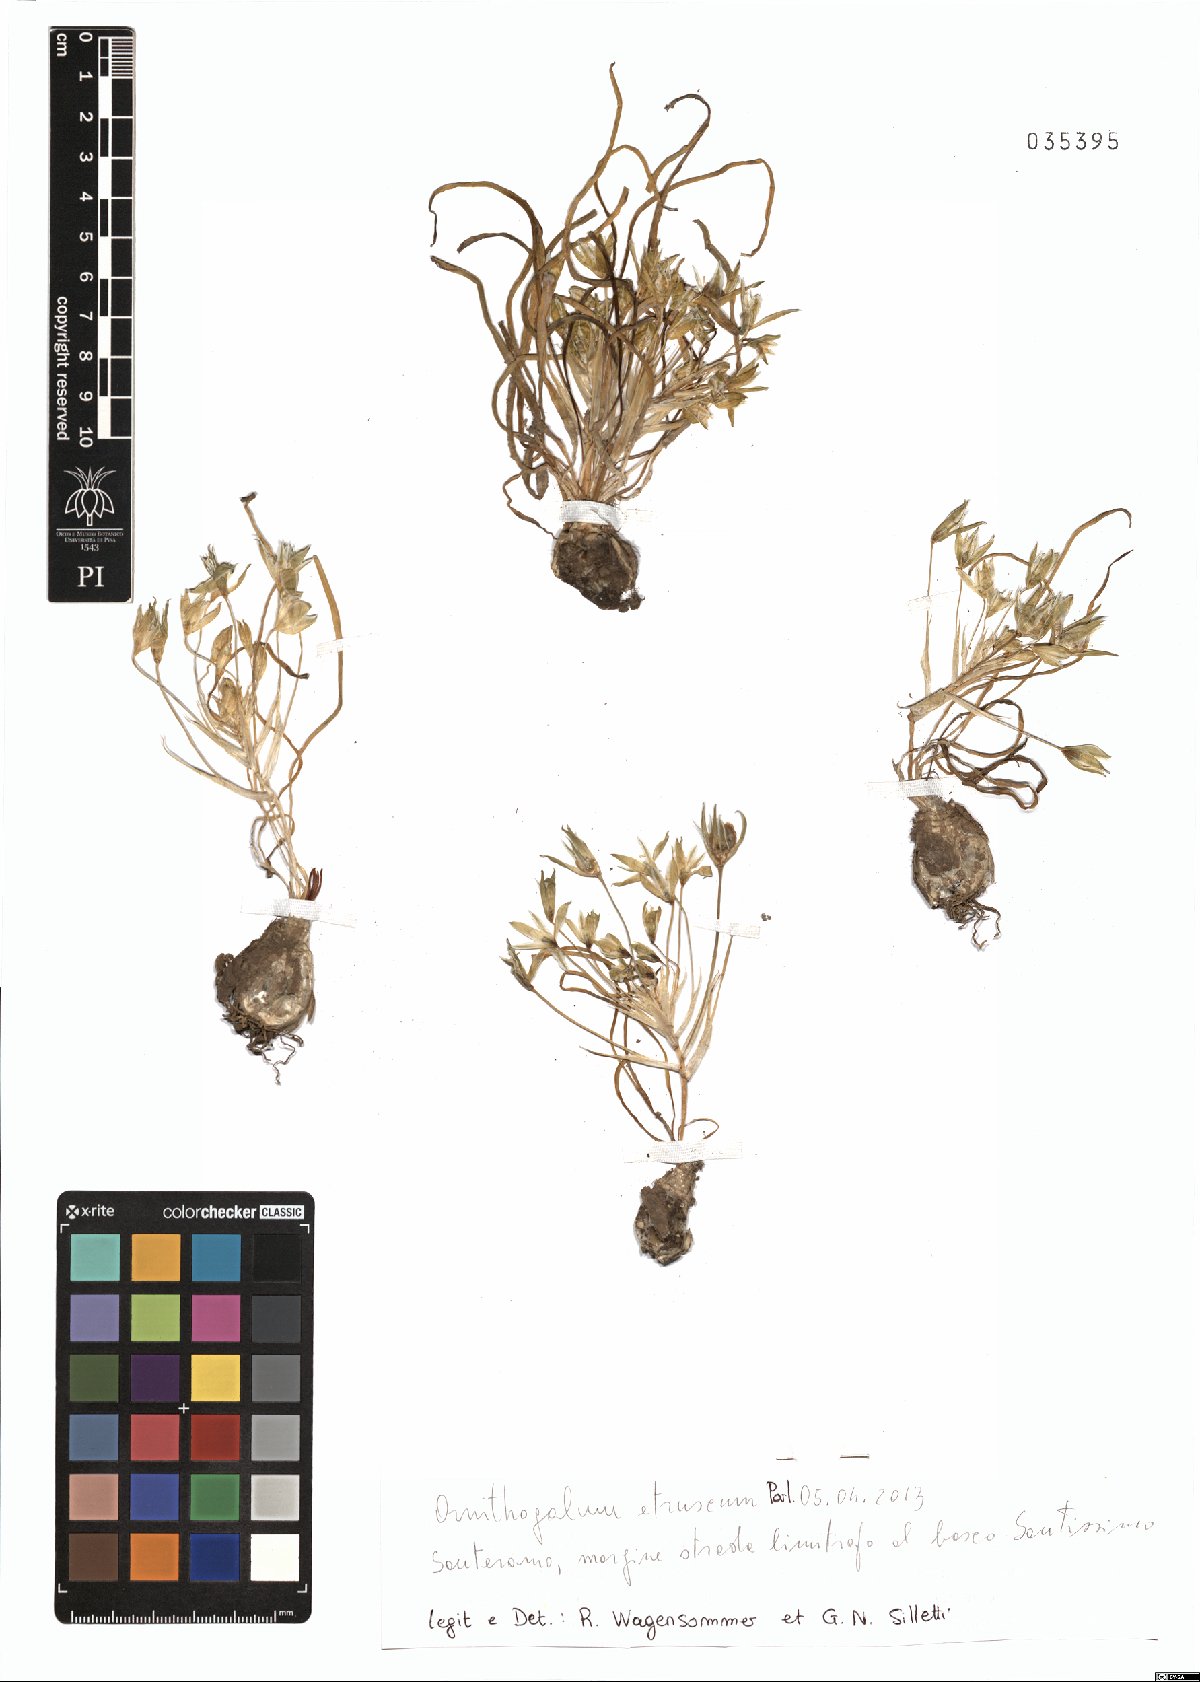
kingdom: Plantae
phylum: Tracheophyta
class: Liliopsida
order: Asparagales
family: Asparagaceae
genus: Ornithogalum
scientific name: Ornithogalum orthophyllum
